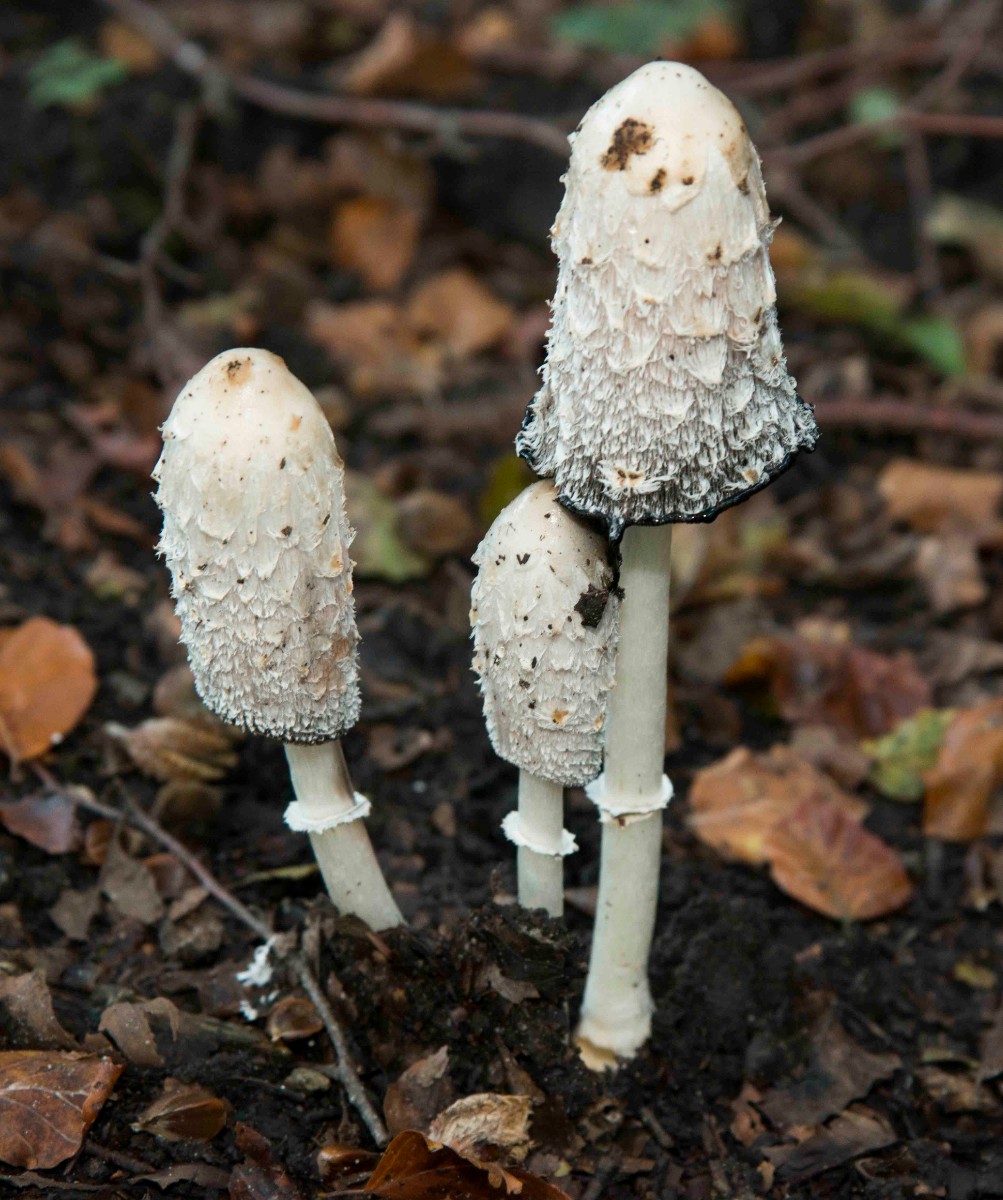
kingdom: Fungi
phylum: Basidiomycota
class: Agaricomycetes
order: Agaricales
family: Agaricaceae
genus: Coprinus
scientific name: Coprinus comatus
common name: stor parykhat
